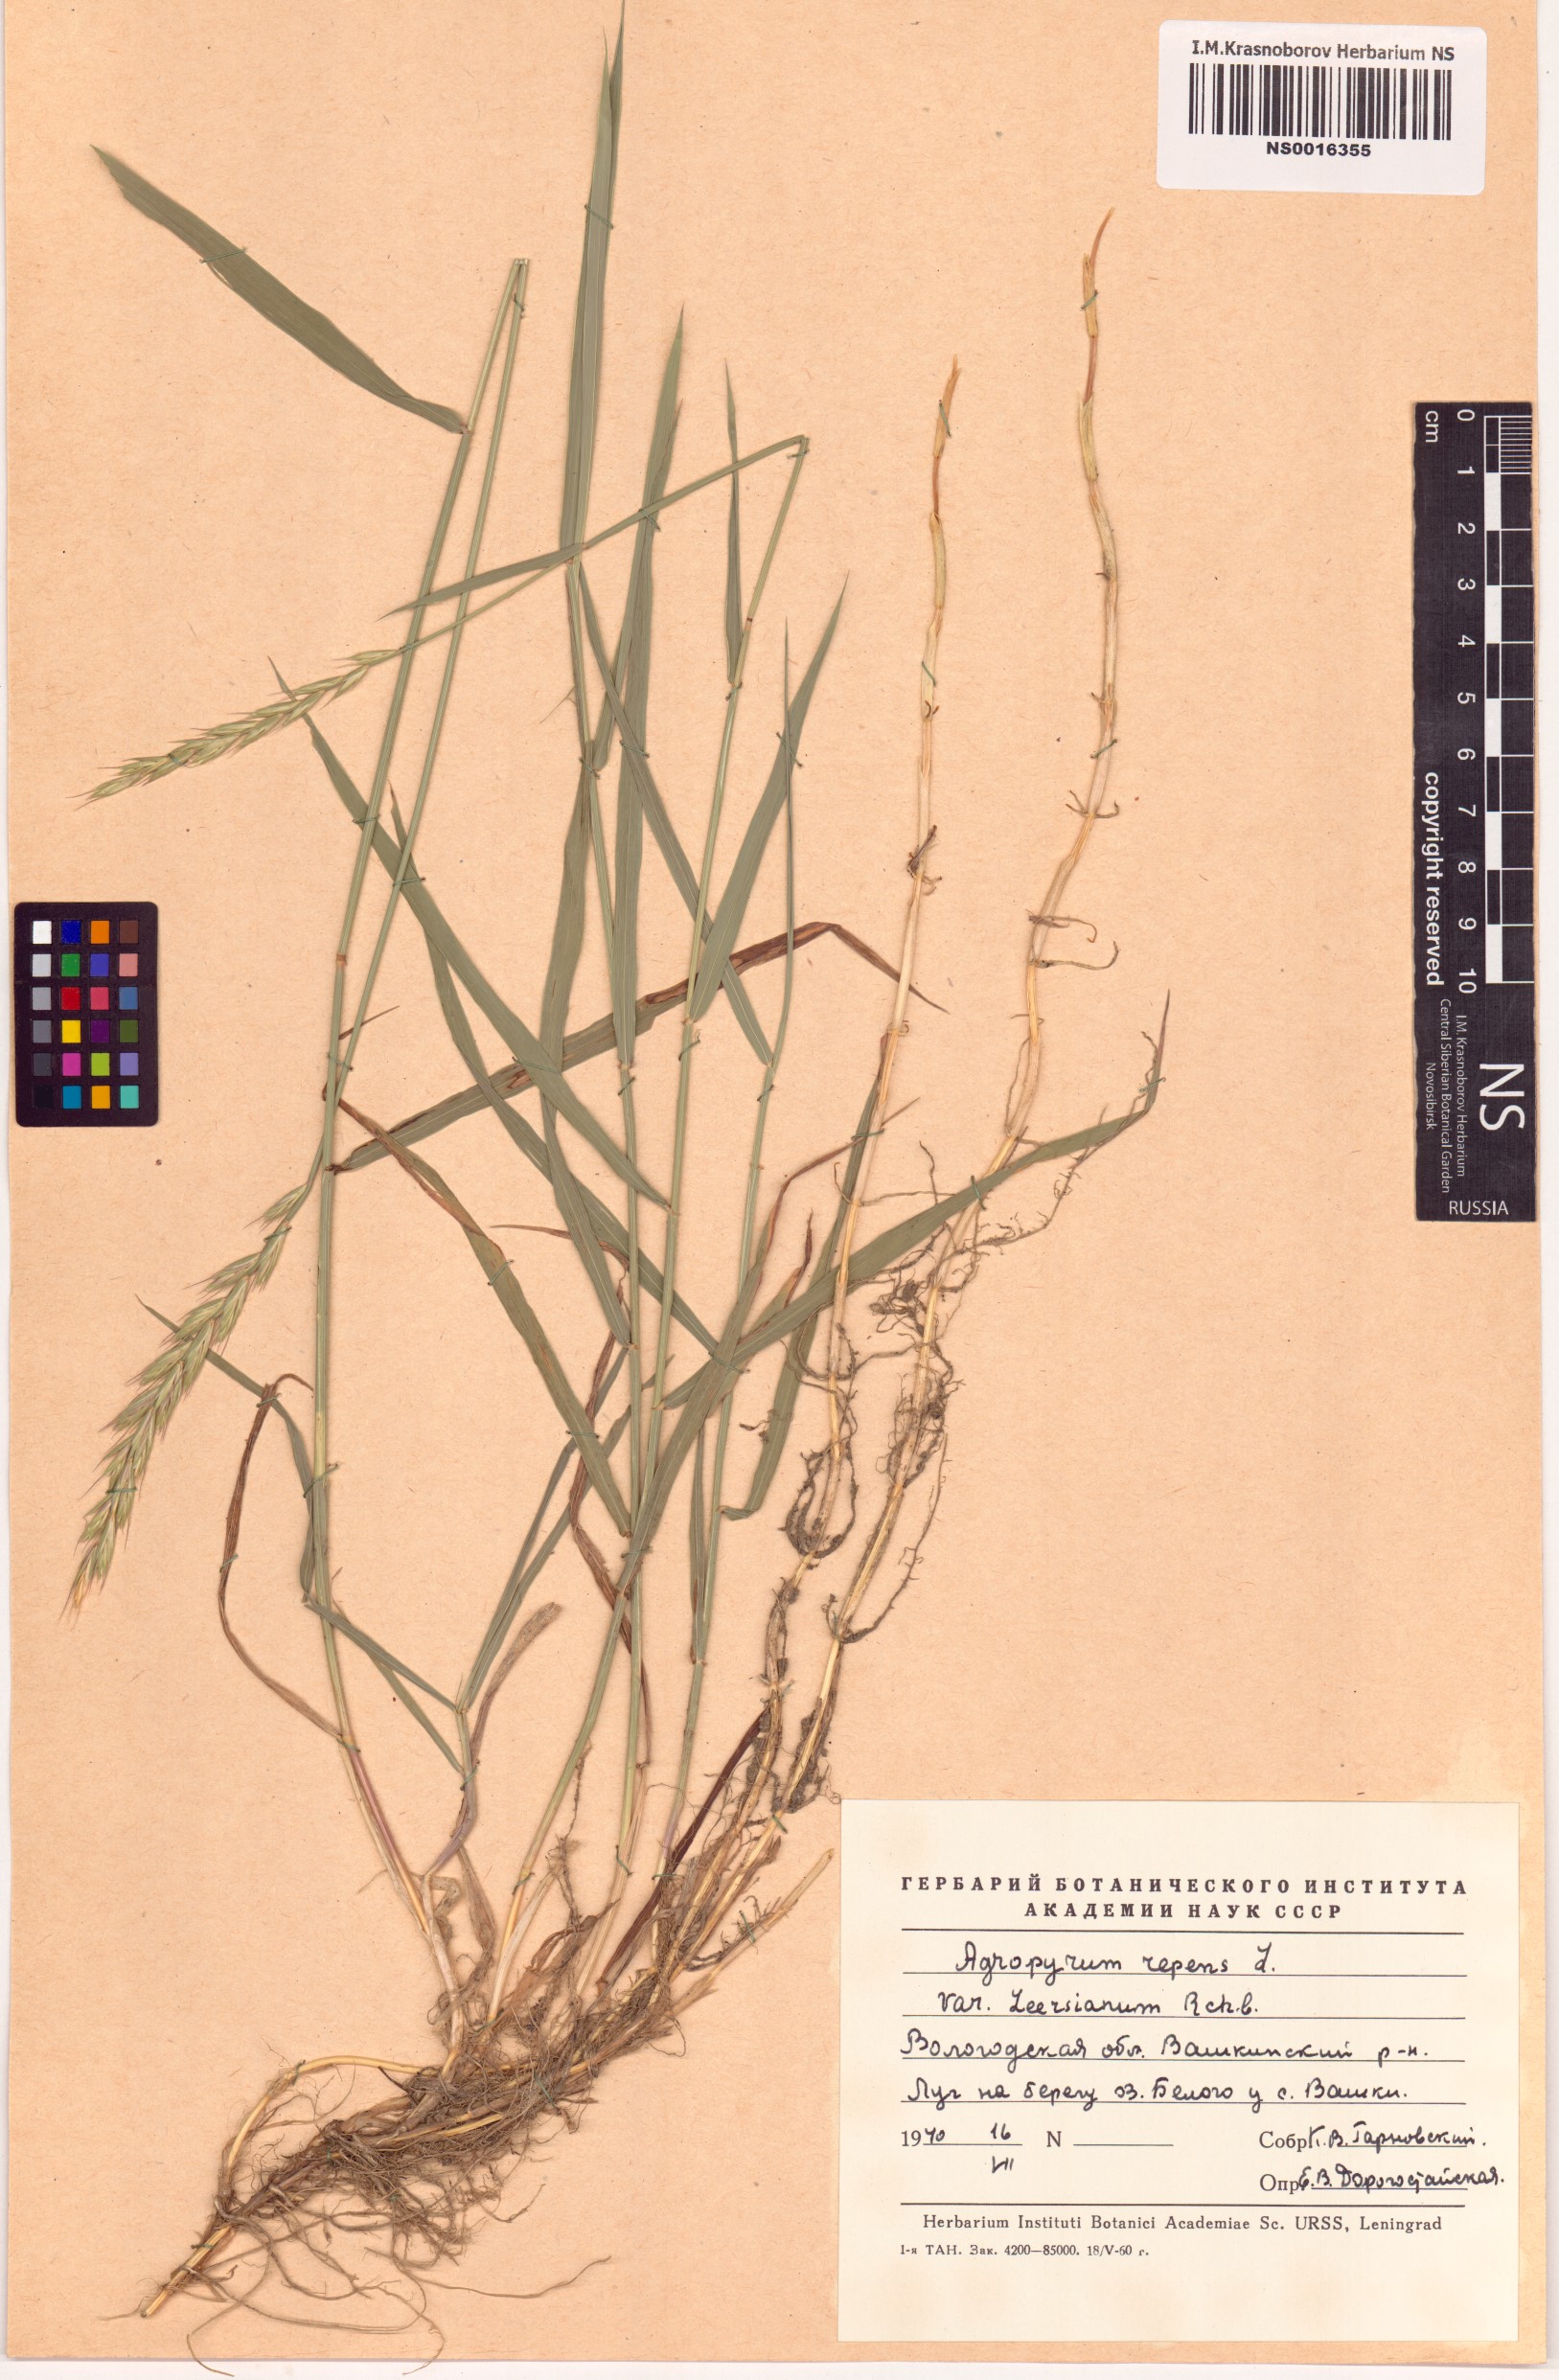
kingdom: Plantae
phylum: Tracheophyta
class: Liliopsida
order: Poales
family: Poaceae
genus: Elymus
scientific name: Elymus repens
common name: Quackgrass
